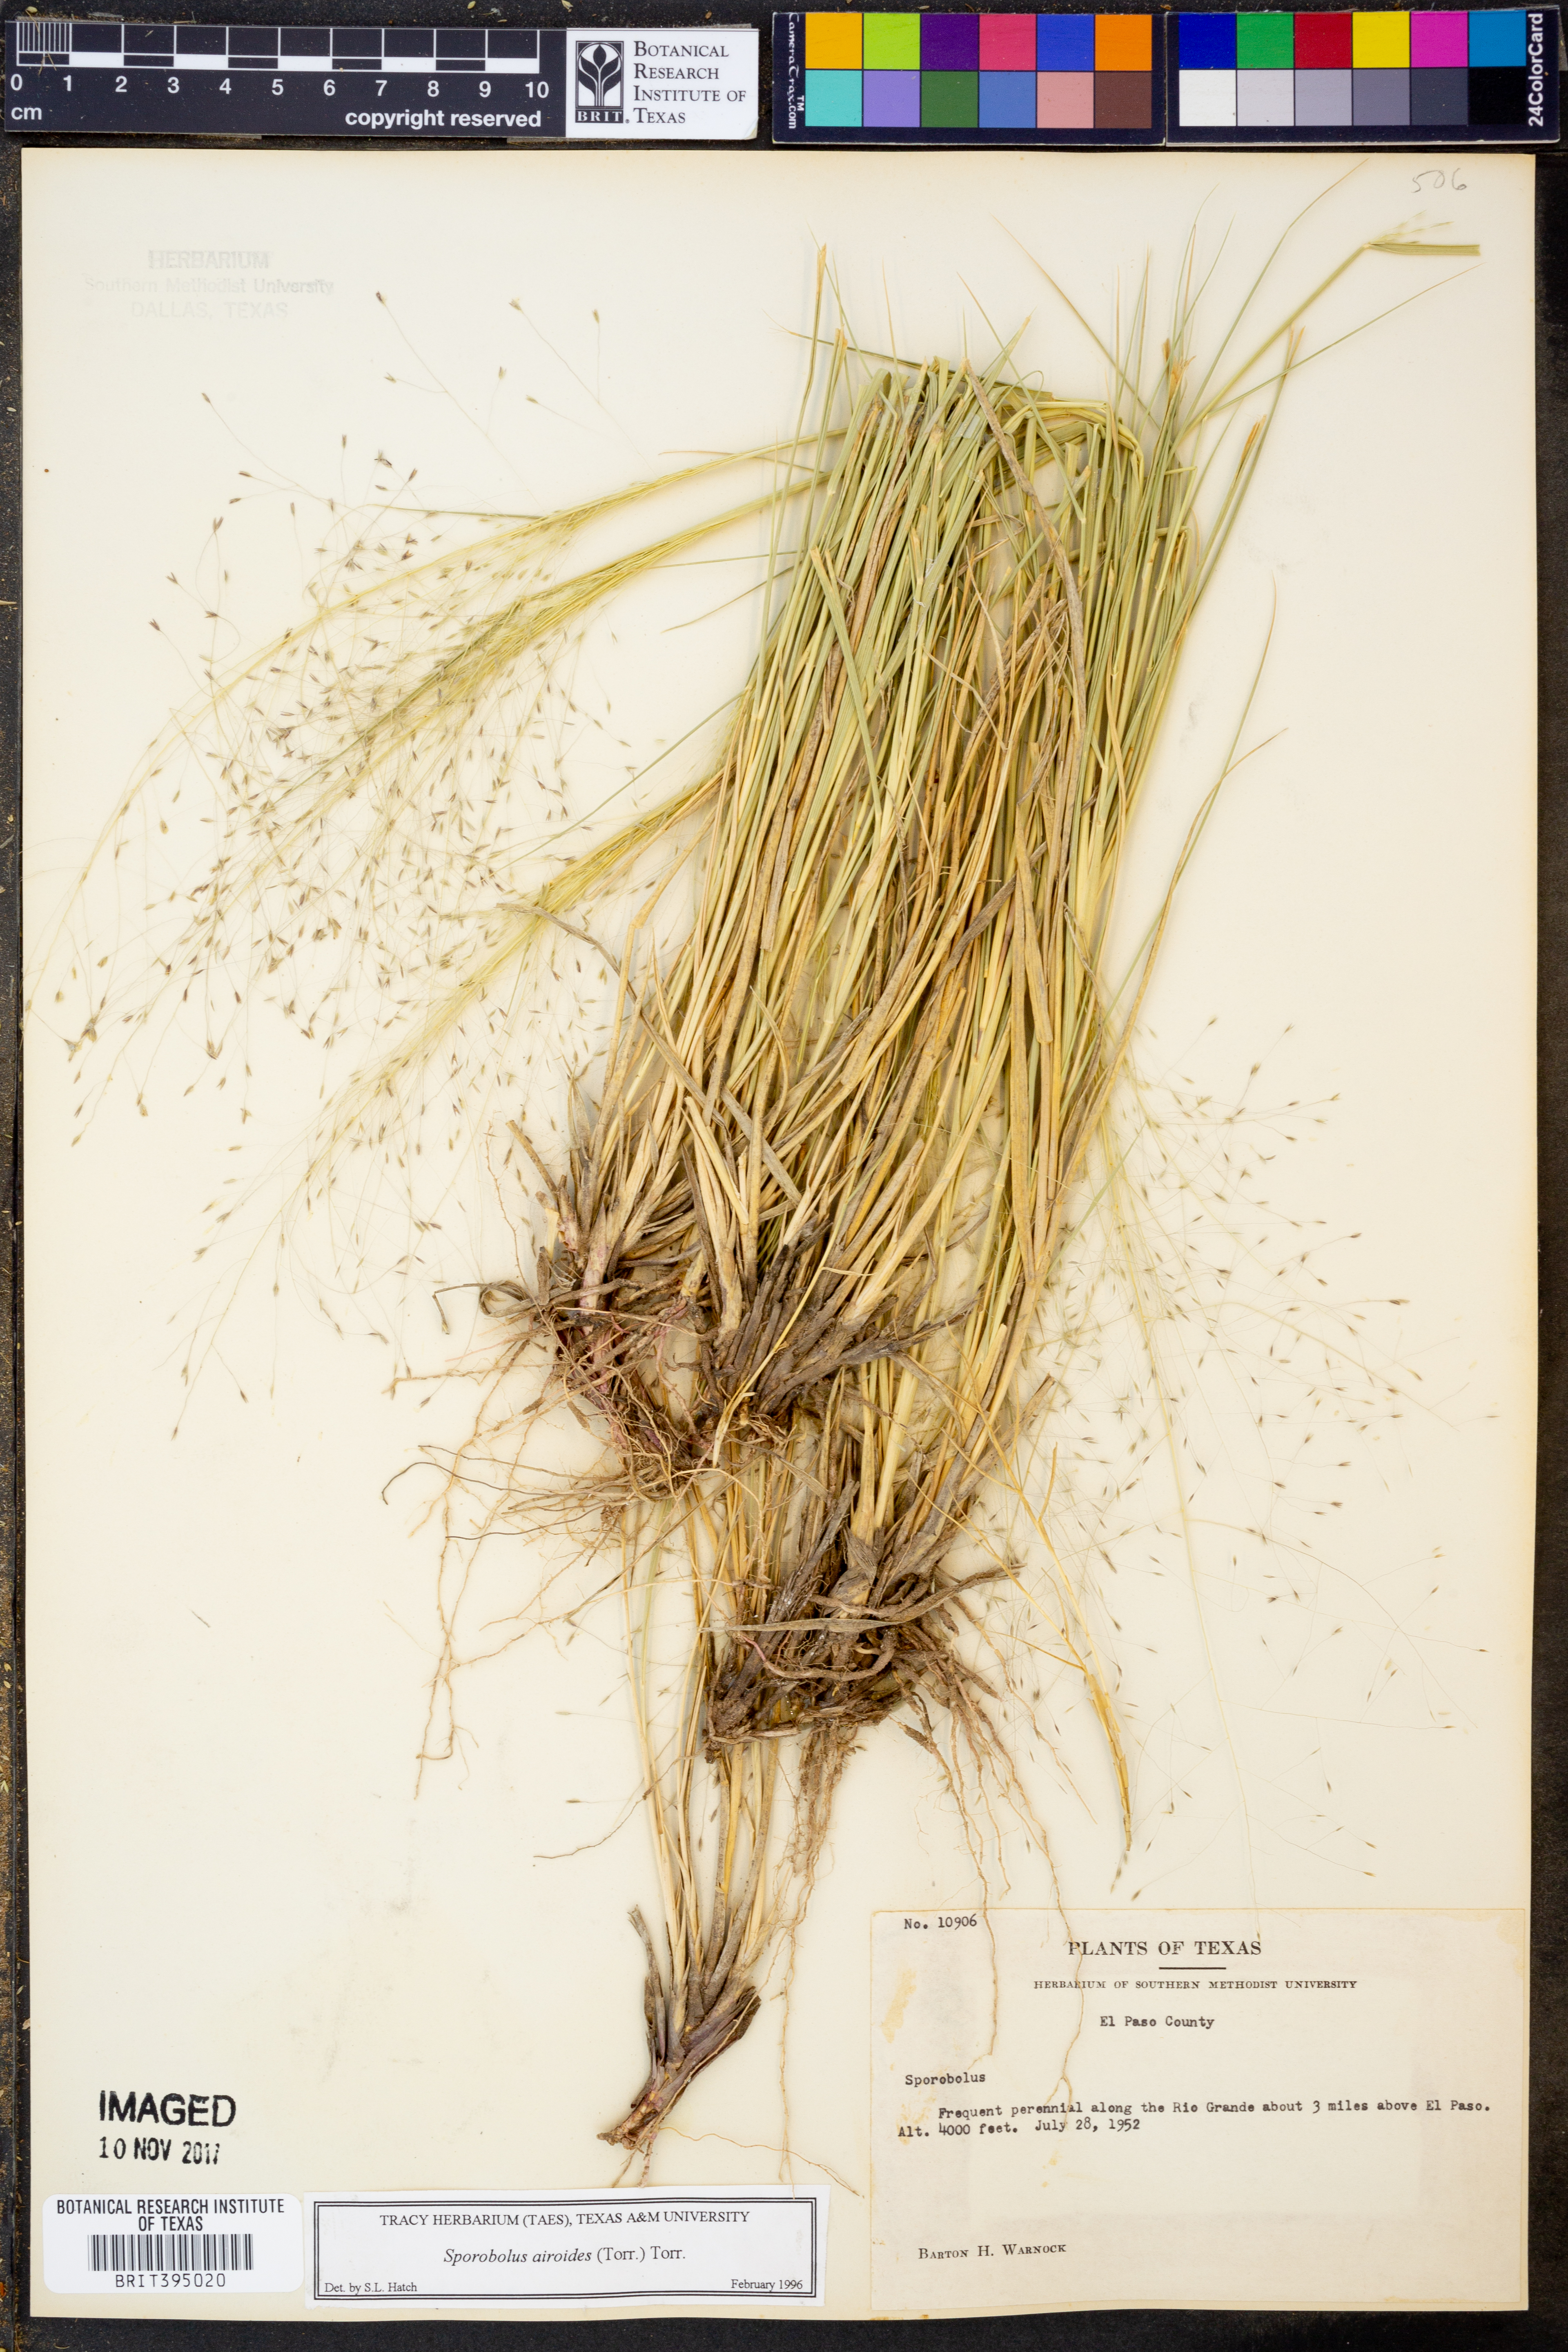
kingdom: Plantae
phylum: Tracheophyta
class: Liliopsida
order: Poales
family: Poaceae
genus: Sporobolus
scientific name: Sporobolus airoides
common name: Alkali sacaton
